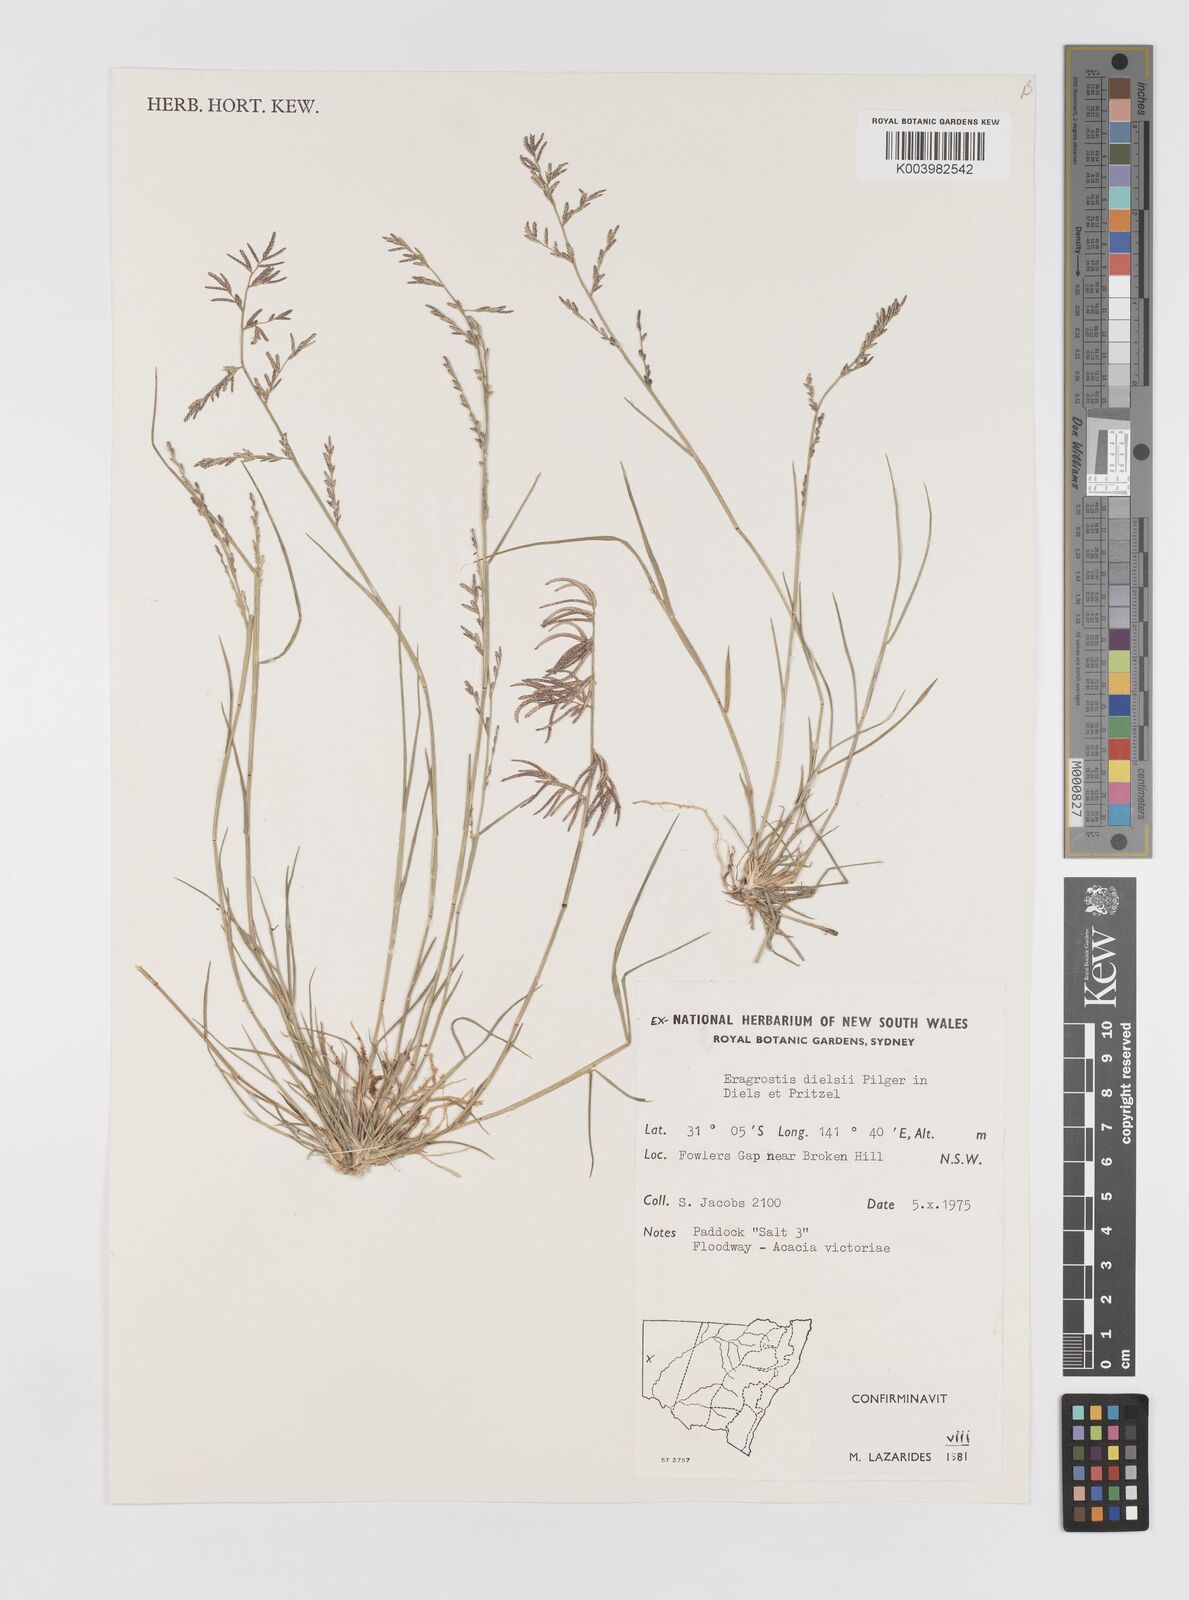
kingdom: Plantae
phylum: Tracheophyta
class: Liliopsida
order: Poales
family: Poaceae
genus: Eragrostis
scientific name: Eragrostis dielsii
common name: Lovegrass
